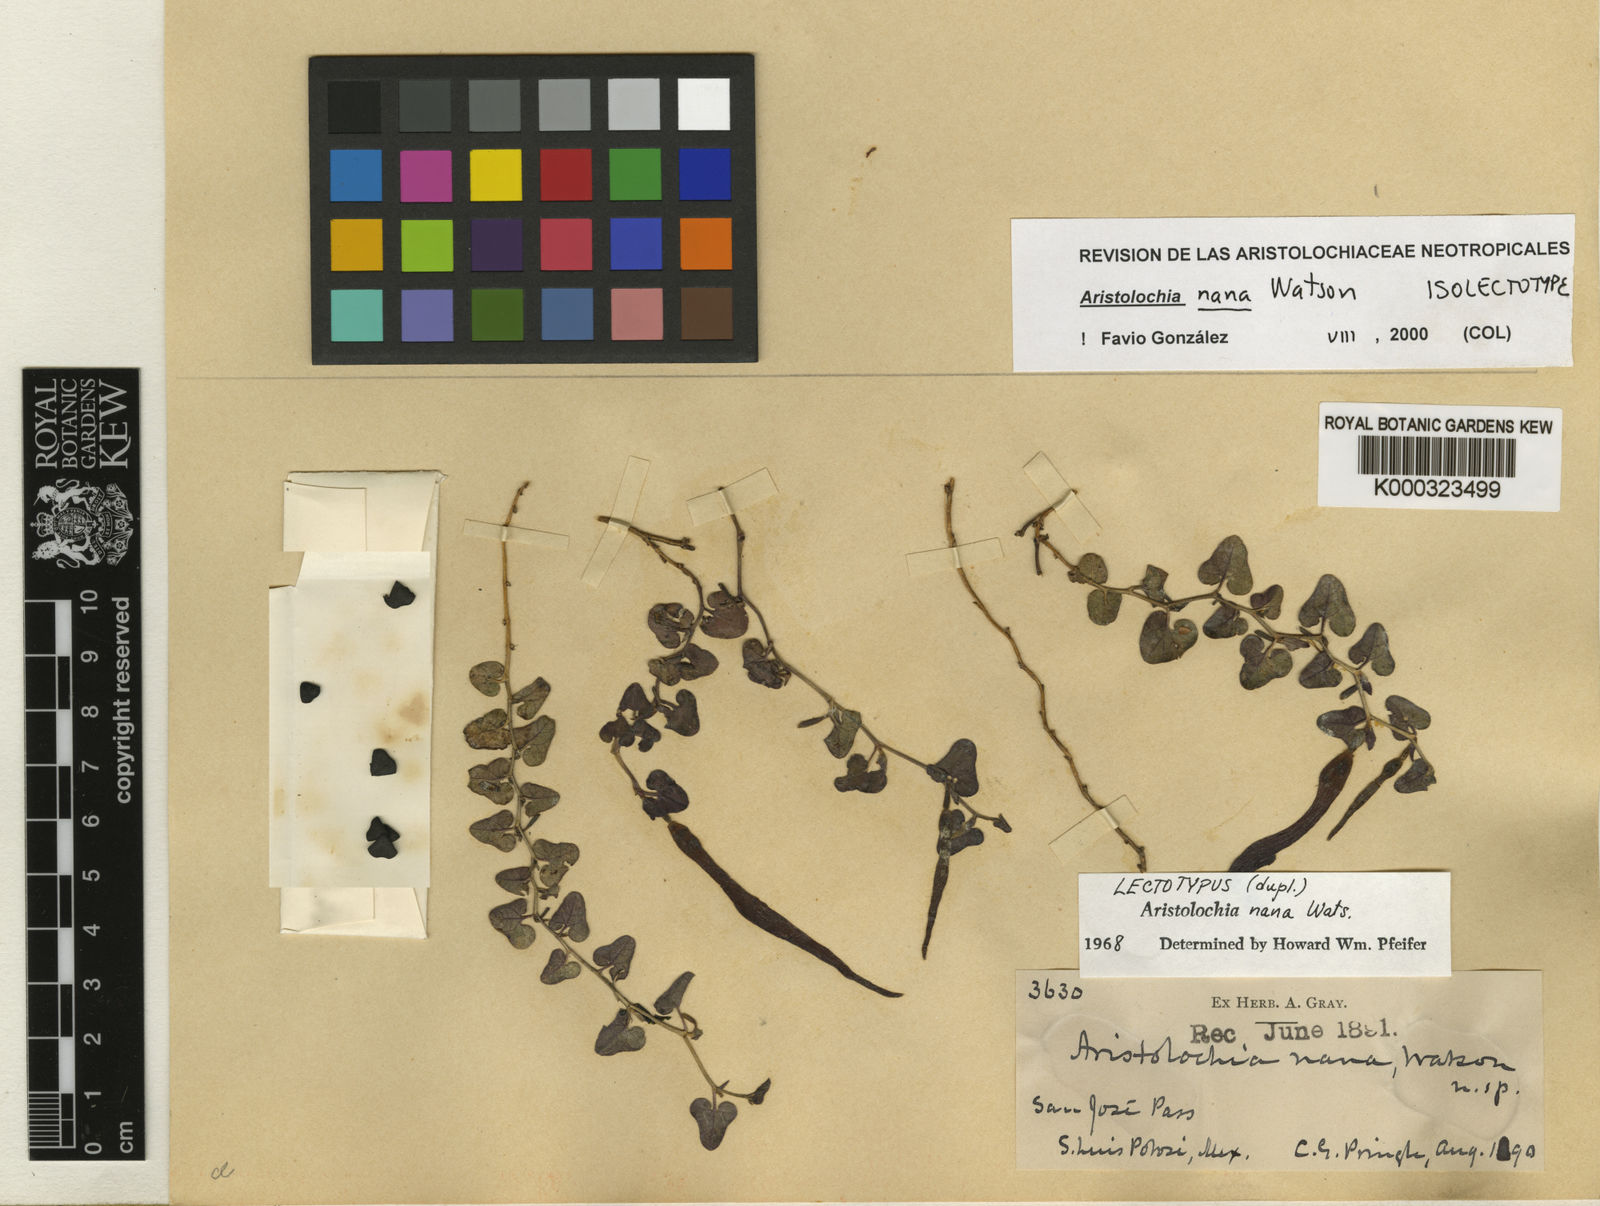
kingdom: Plantae
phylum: Tracheophyta
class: Magnoliopsida
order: Piperales
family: Aristolochiaceae
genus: Aristolochia
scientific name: Aristolochia nana
